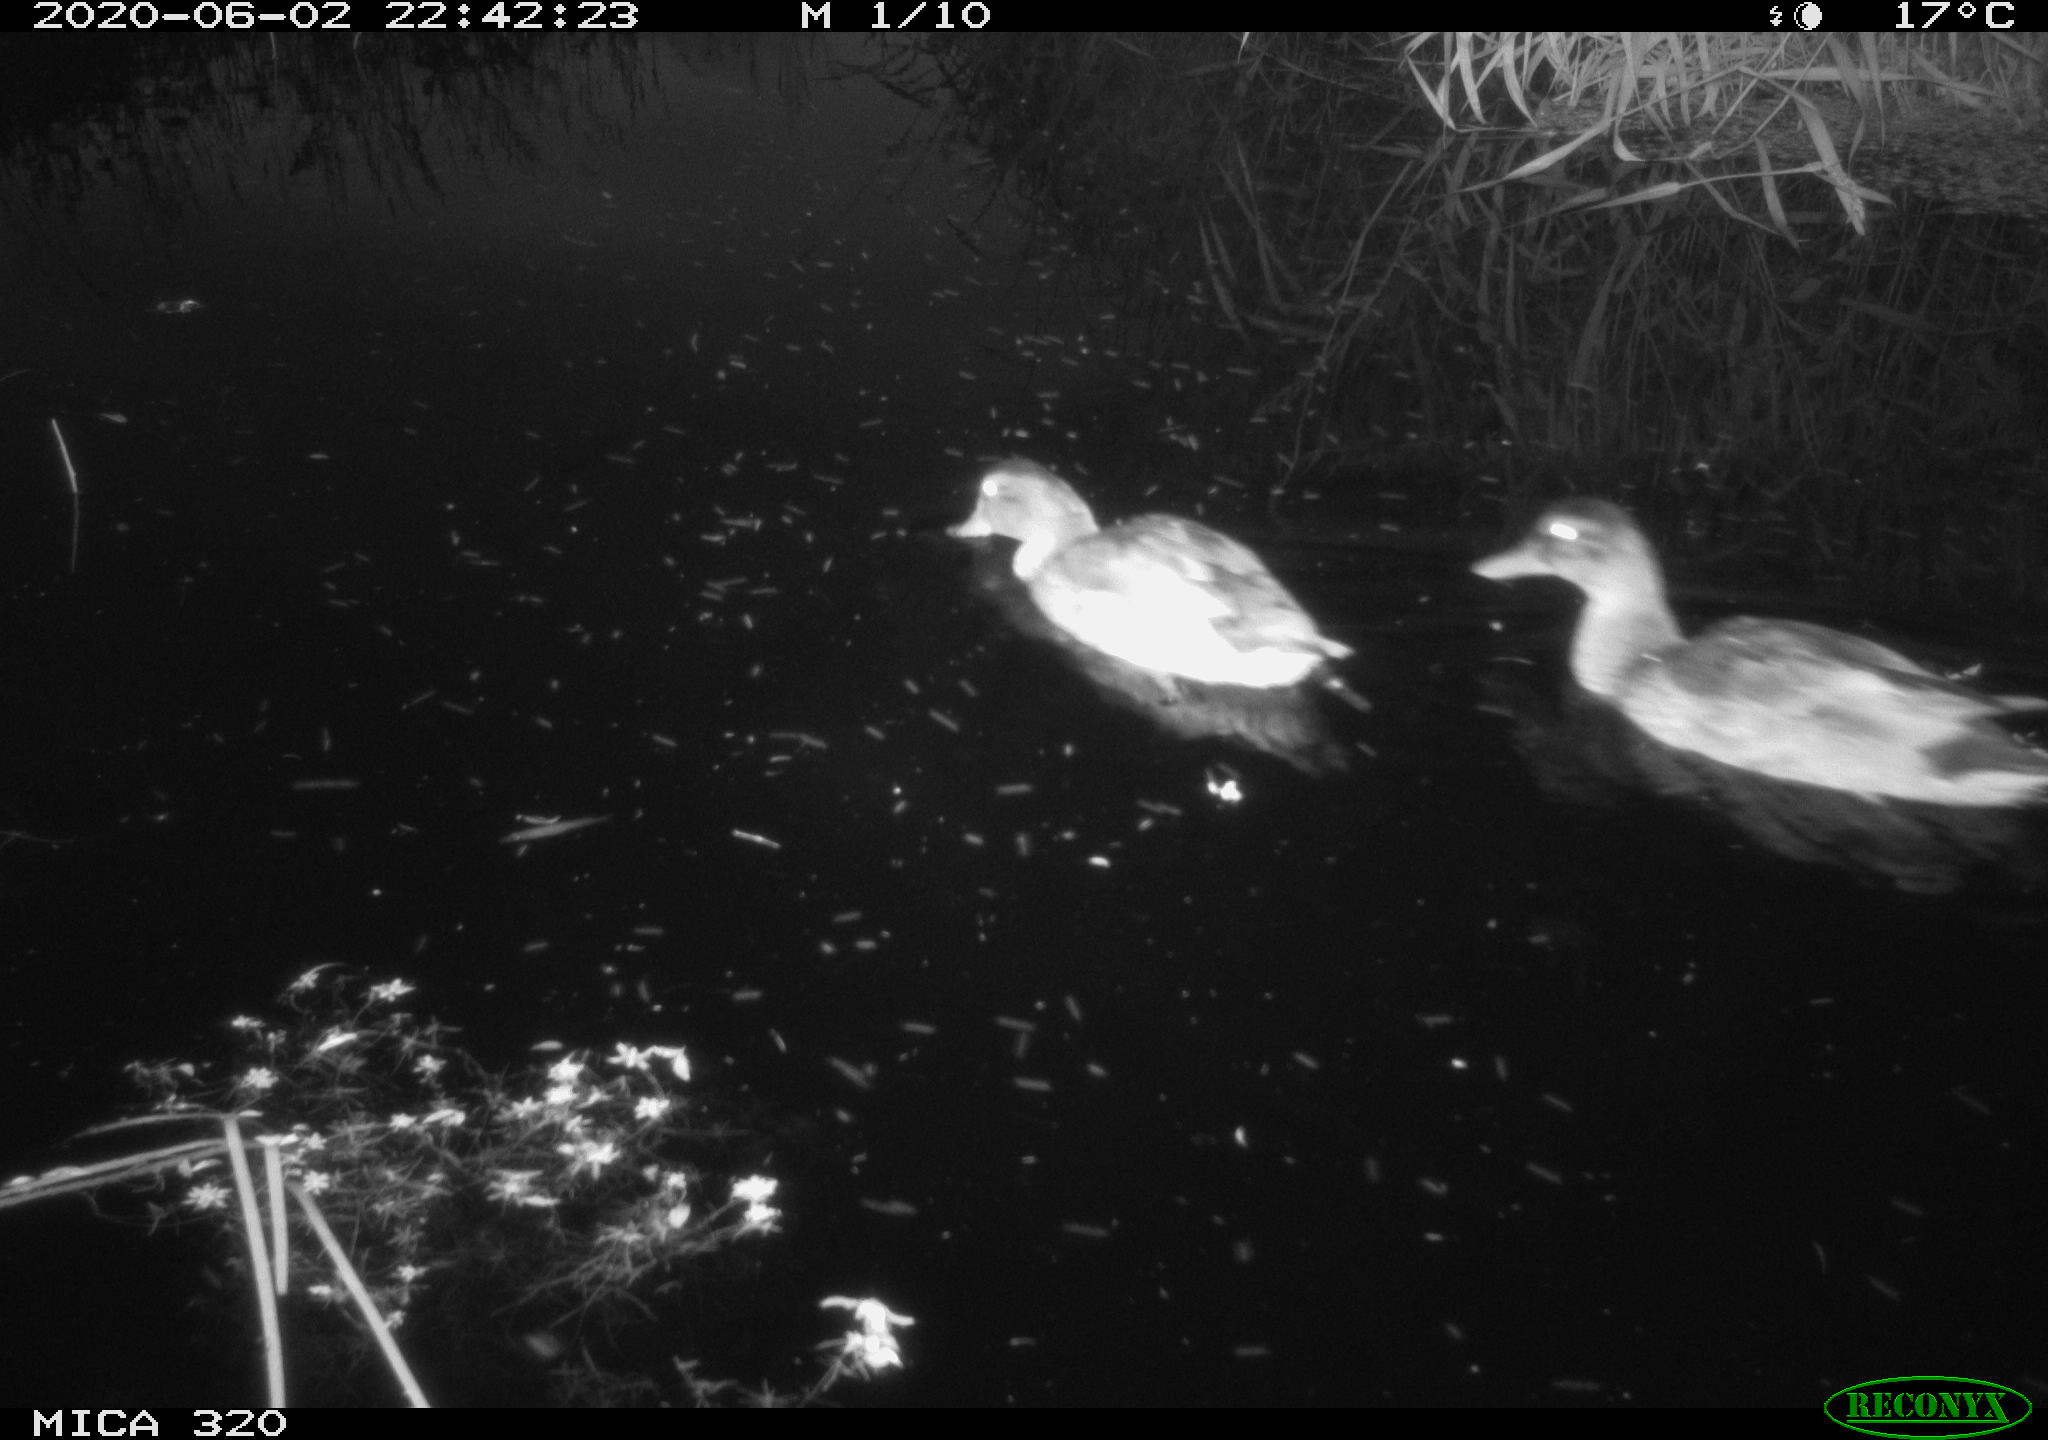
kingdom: Animalia
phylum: Chordata
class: Aves
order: Anseriformes
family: Anatidae
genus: Anas
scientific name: Anas platyrhynchos
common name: Mallard
